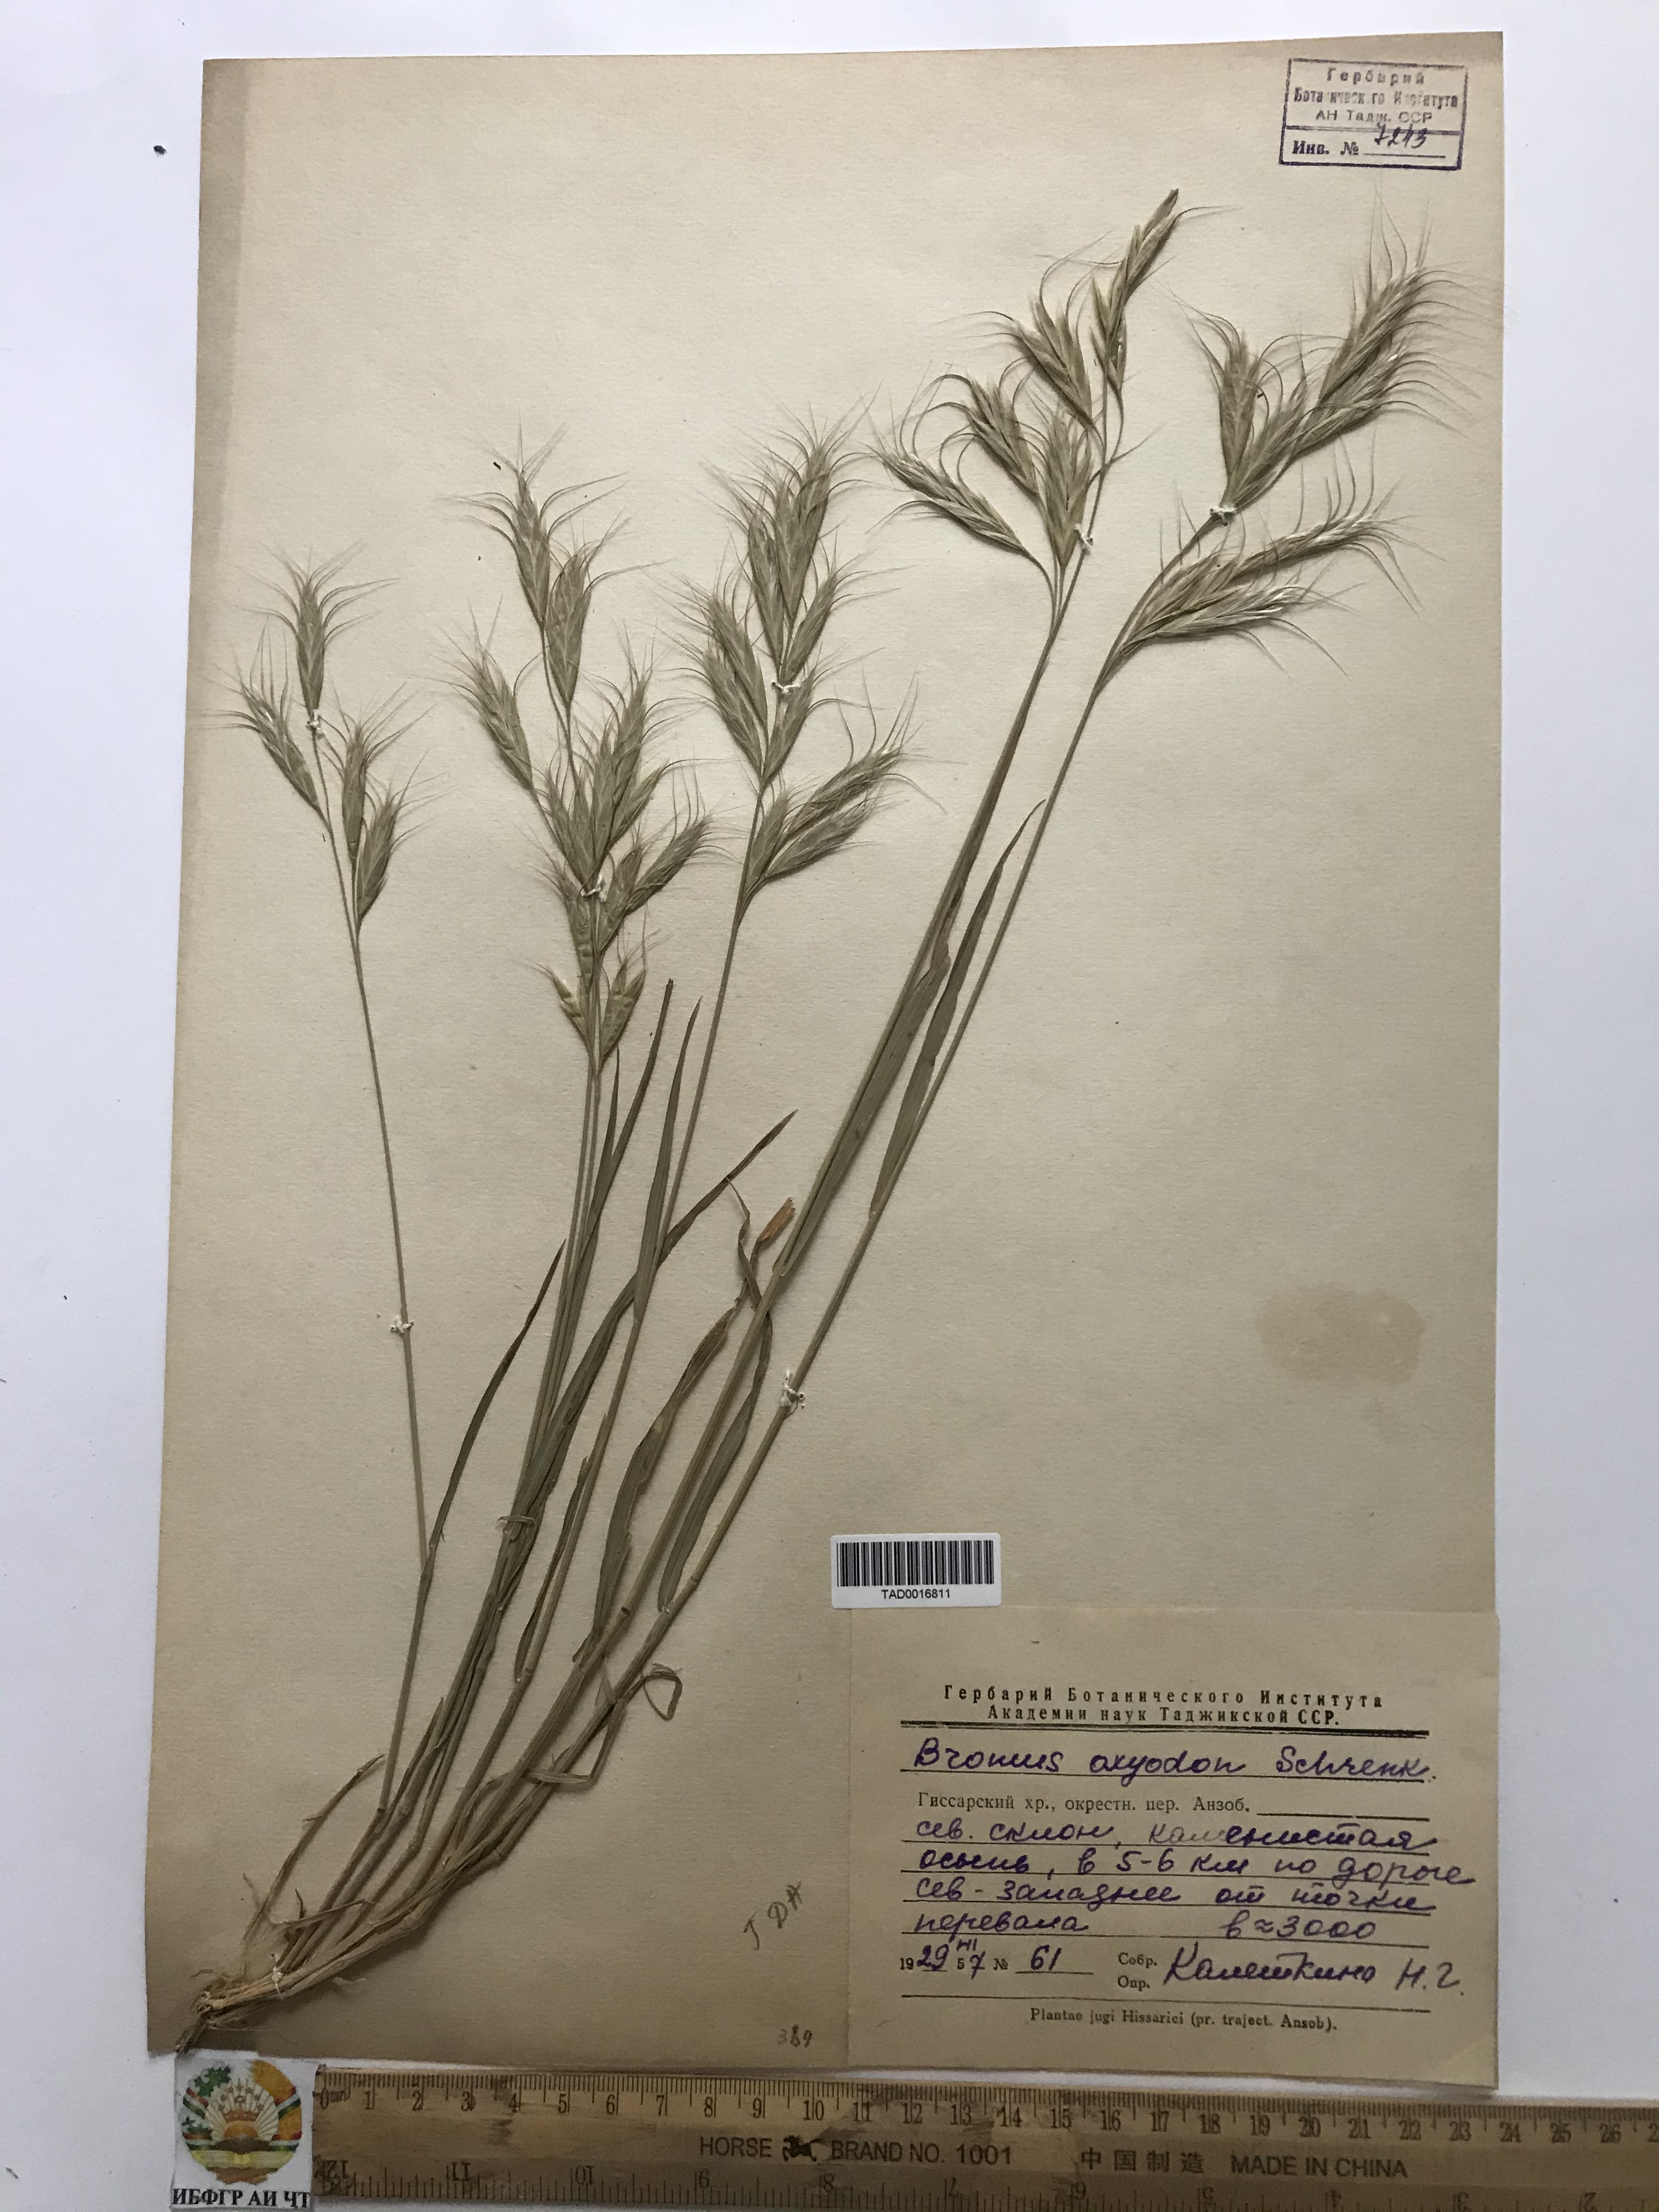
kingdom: Plantae
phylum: Tracheophyta
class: Liliopsida
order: Poales
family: Poaceae
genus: Bromus
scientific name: Bromus oxyodon
